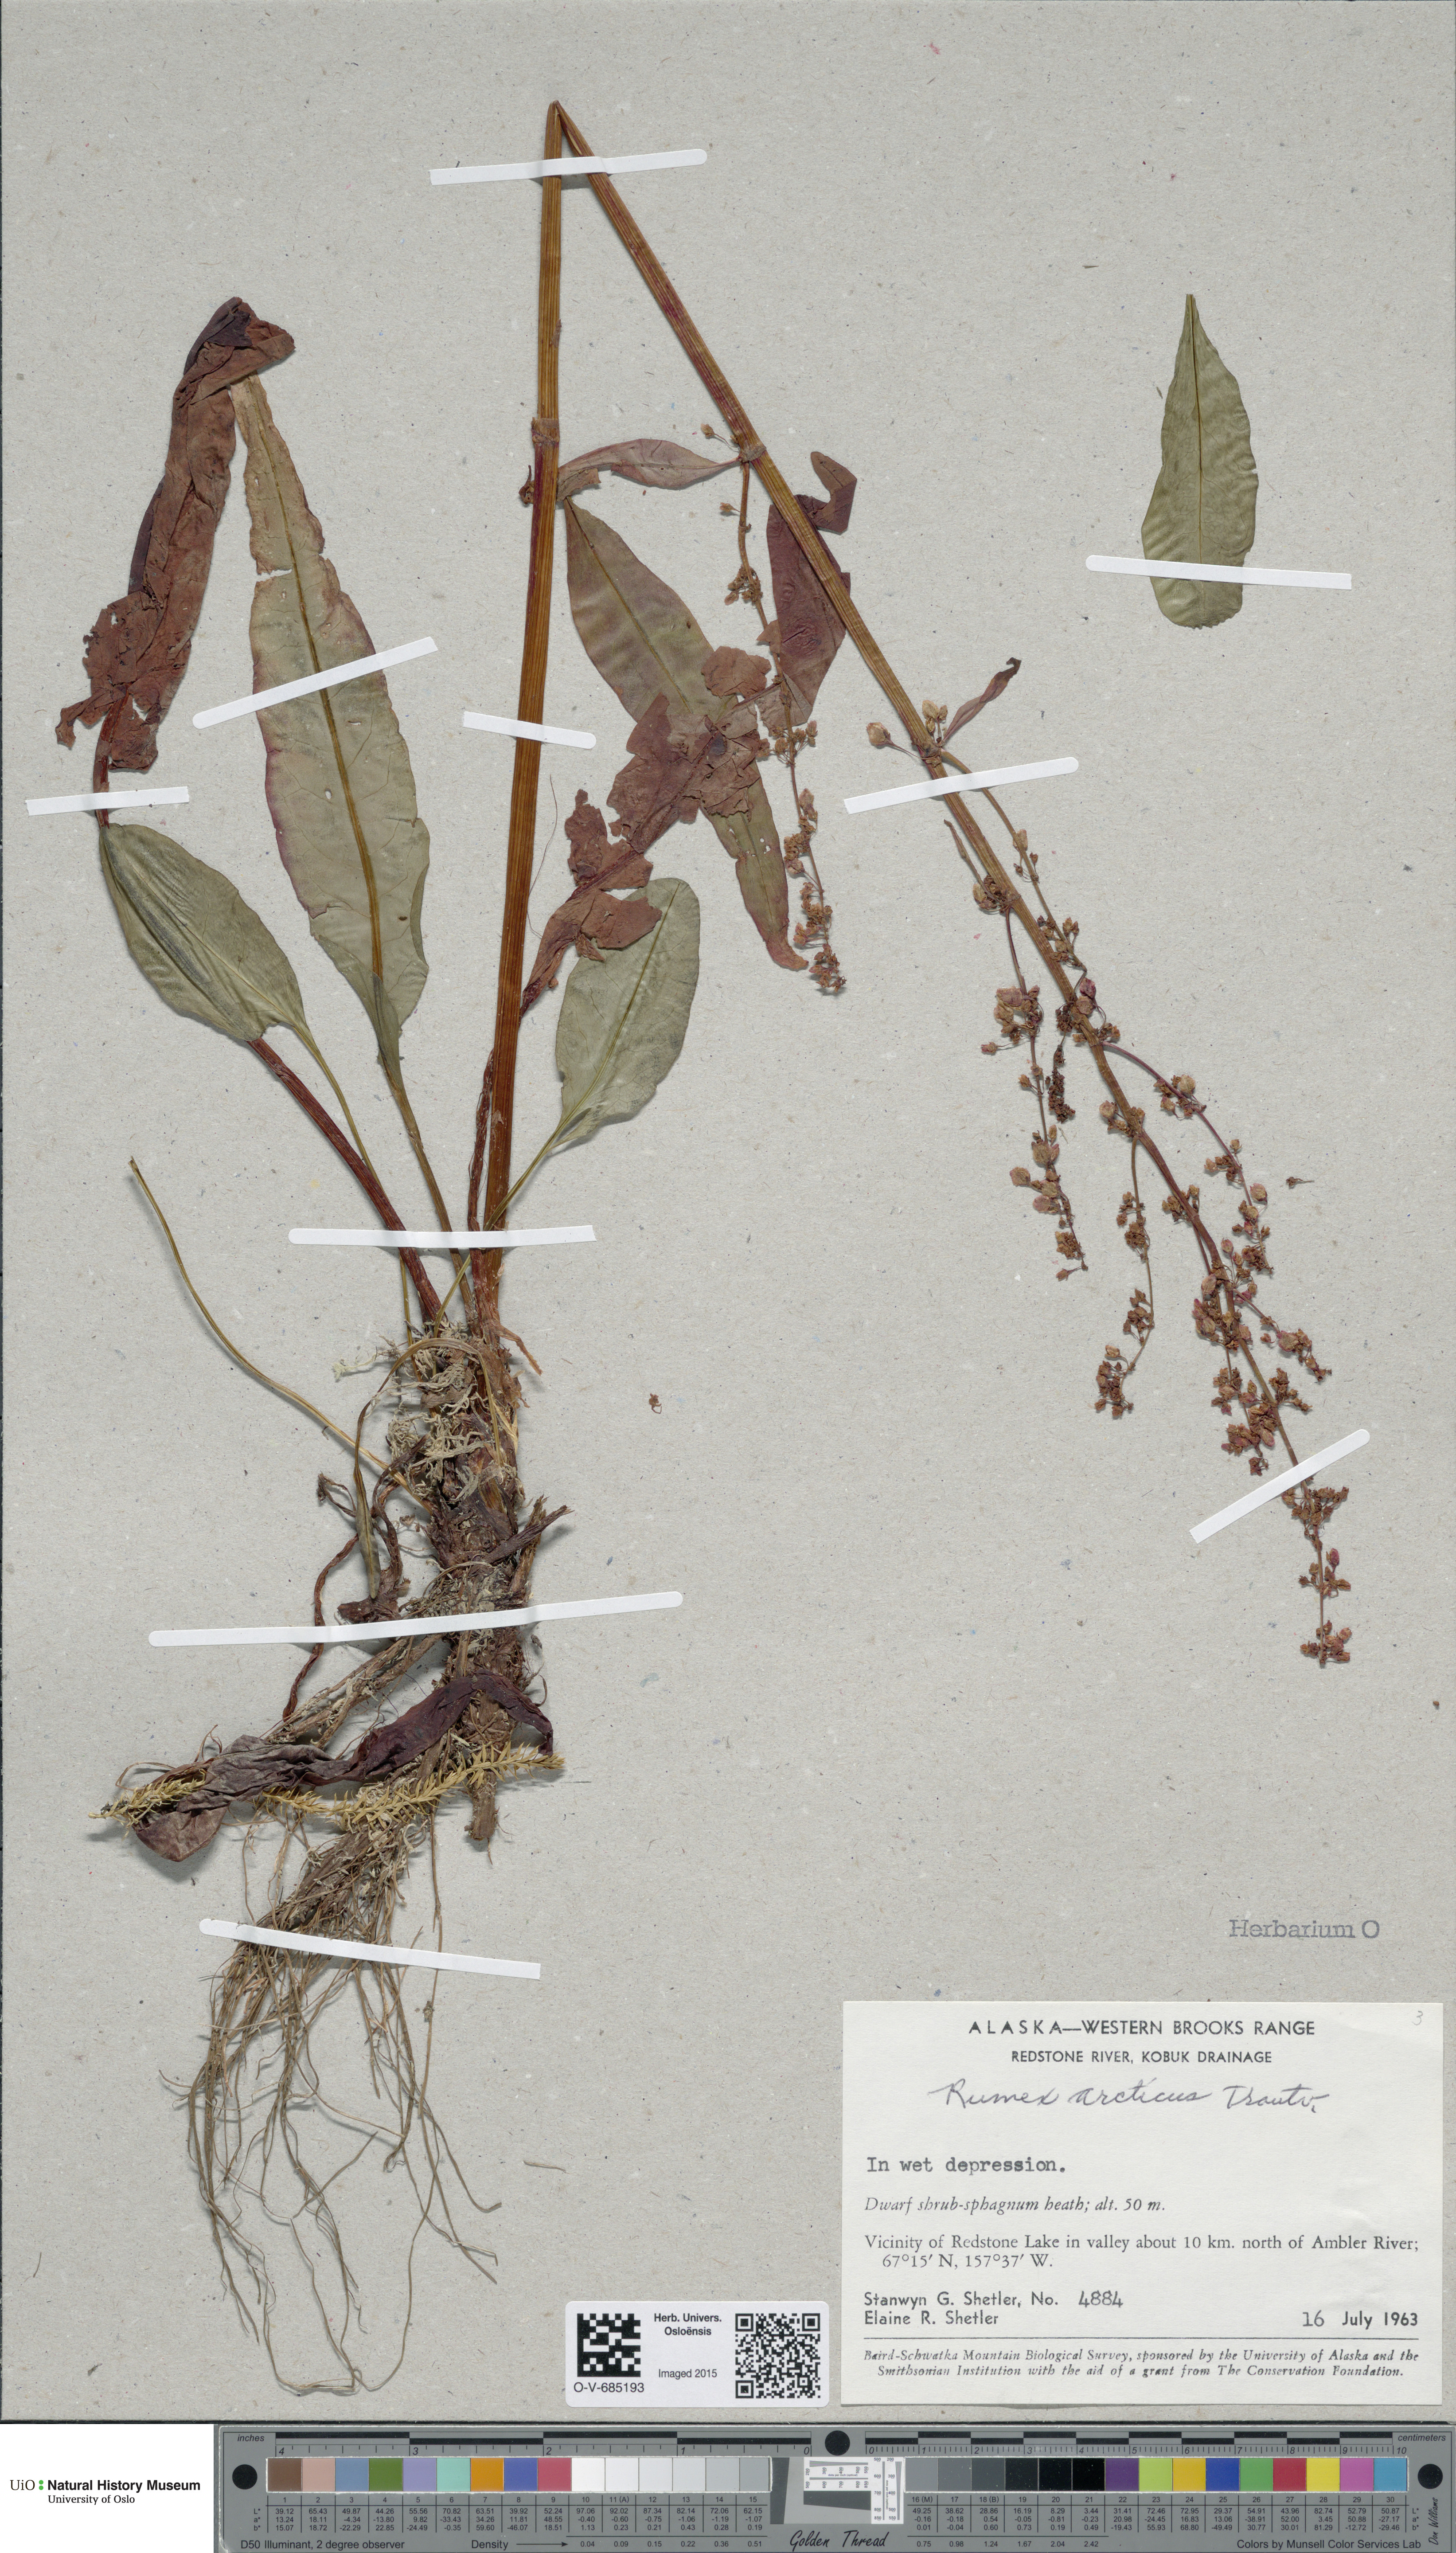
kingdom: Plantae
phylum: Tracheophyta
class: Magnoliopsida
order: Caryophyllales
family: Polygonaceae
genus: Rumex
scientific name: Rumex arcticus
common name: Arctic dock
